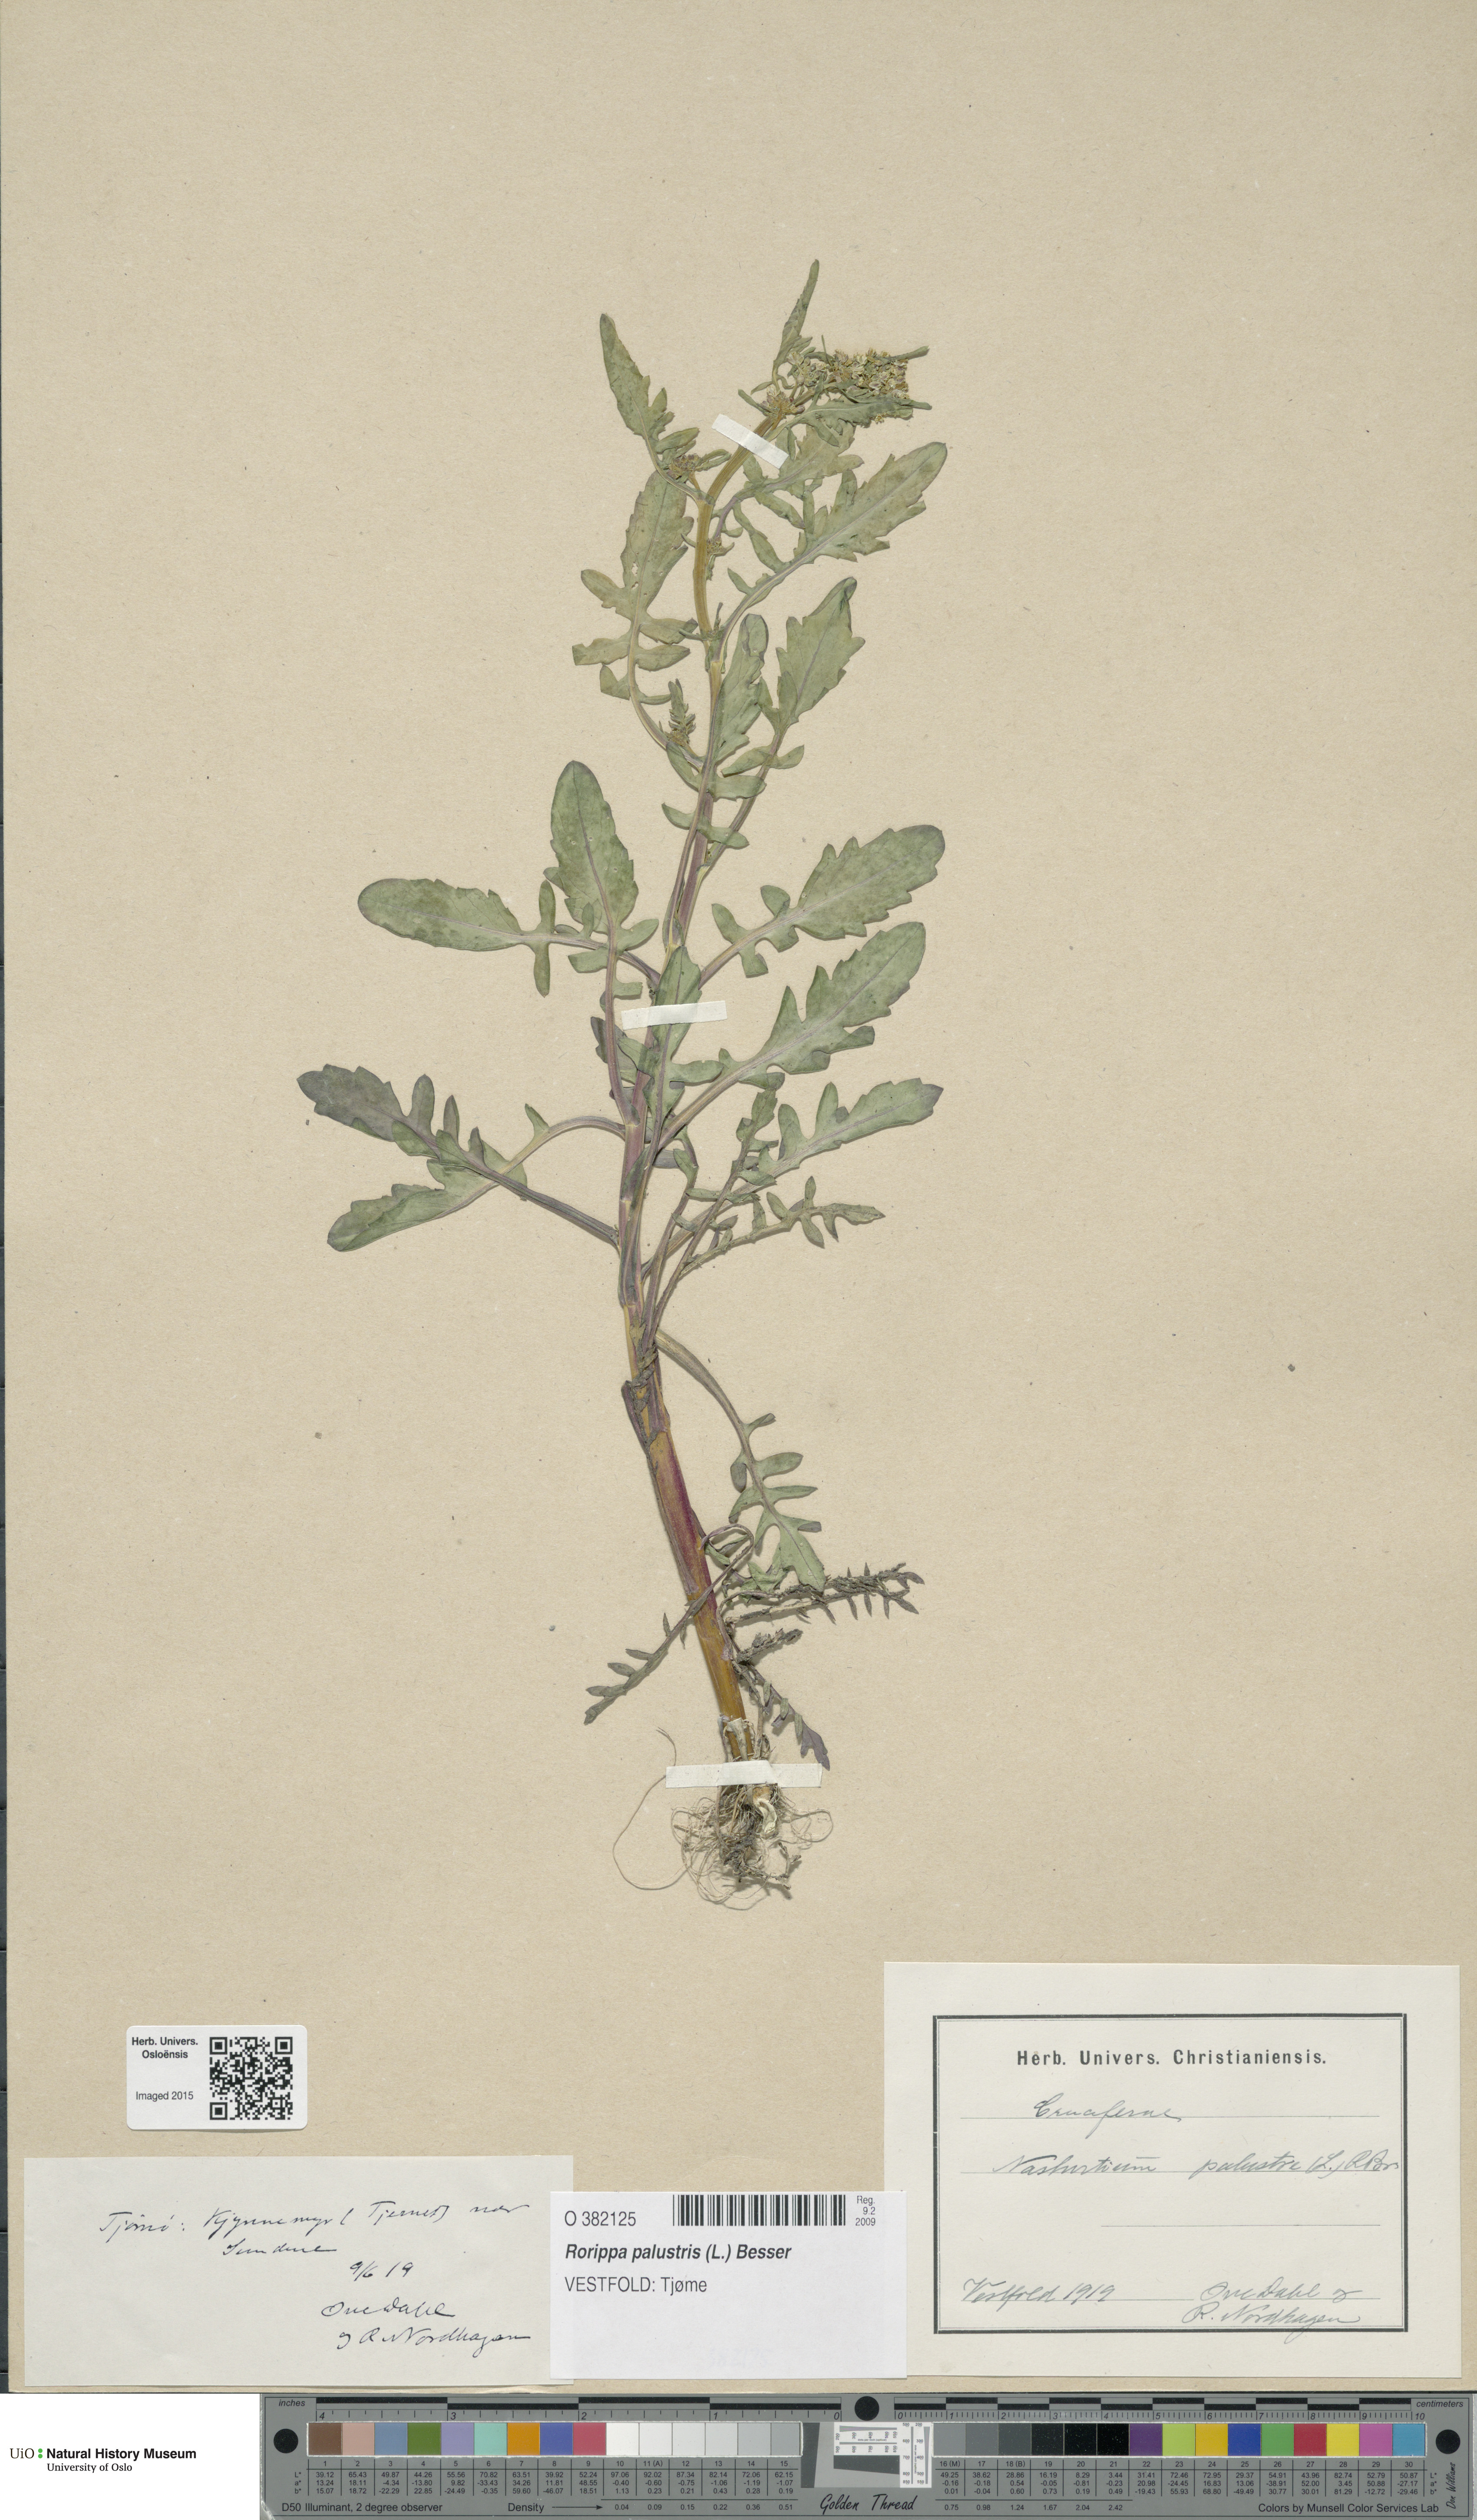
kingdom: Plantae
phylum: Tracheophyta
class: Magnoliopsida
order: Brassicales
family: Brassicaceae
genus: Rorippa
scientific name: Rorippa palustris
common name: Marsh yellow-cress
